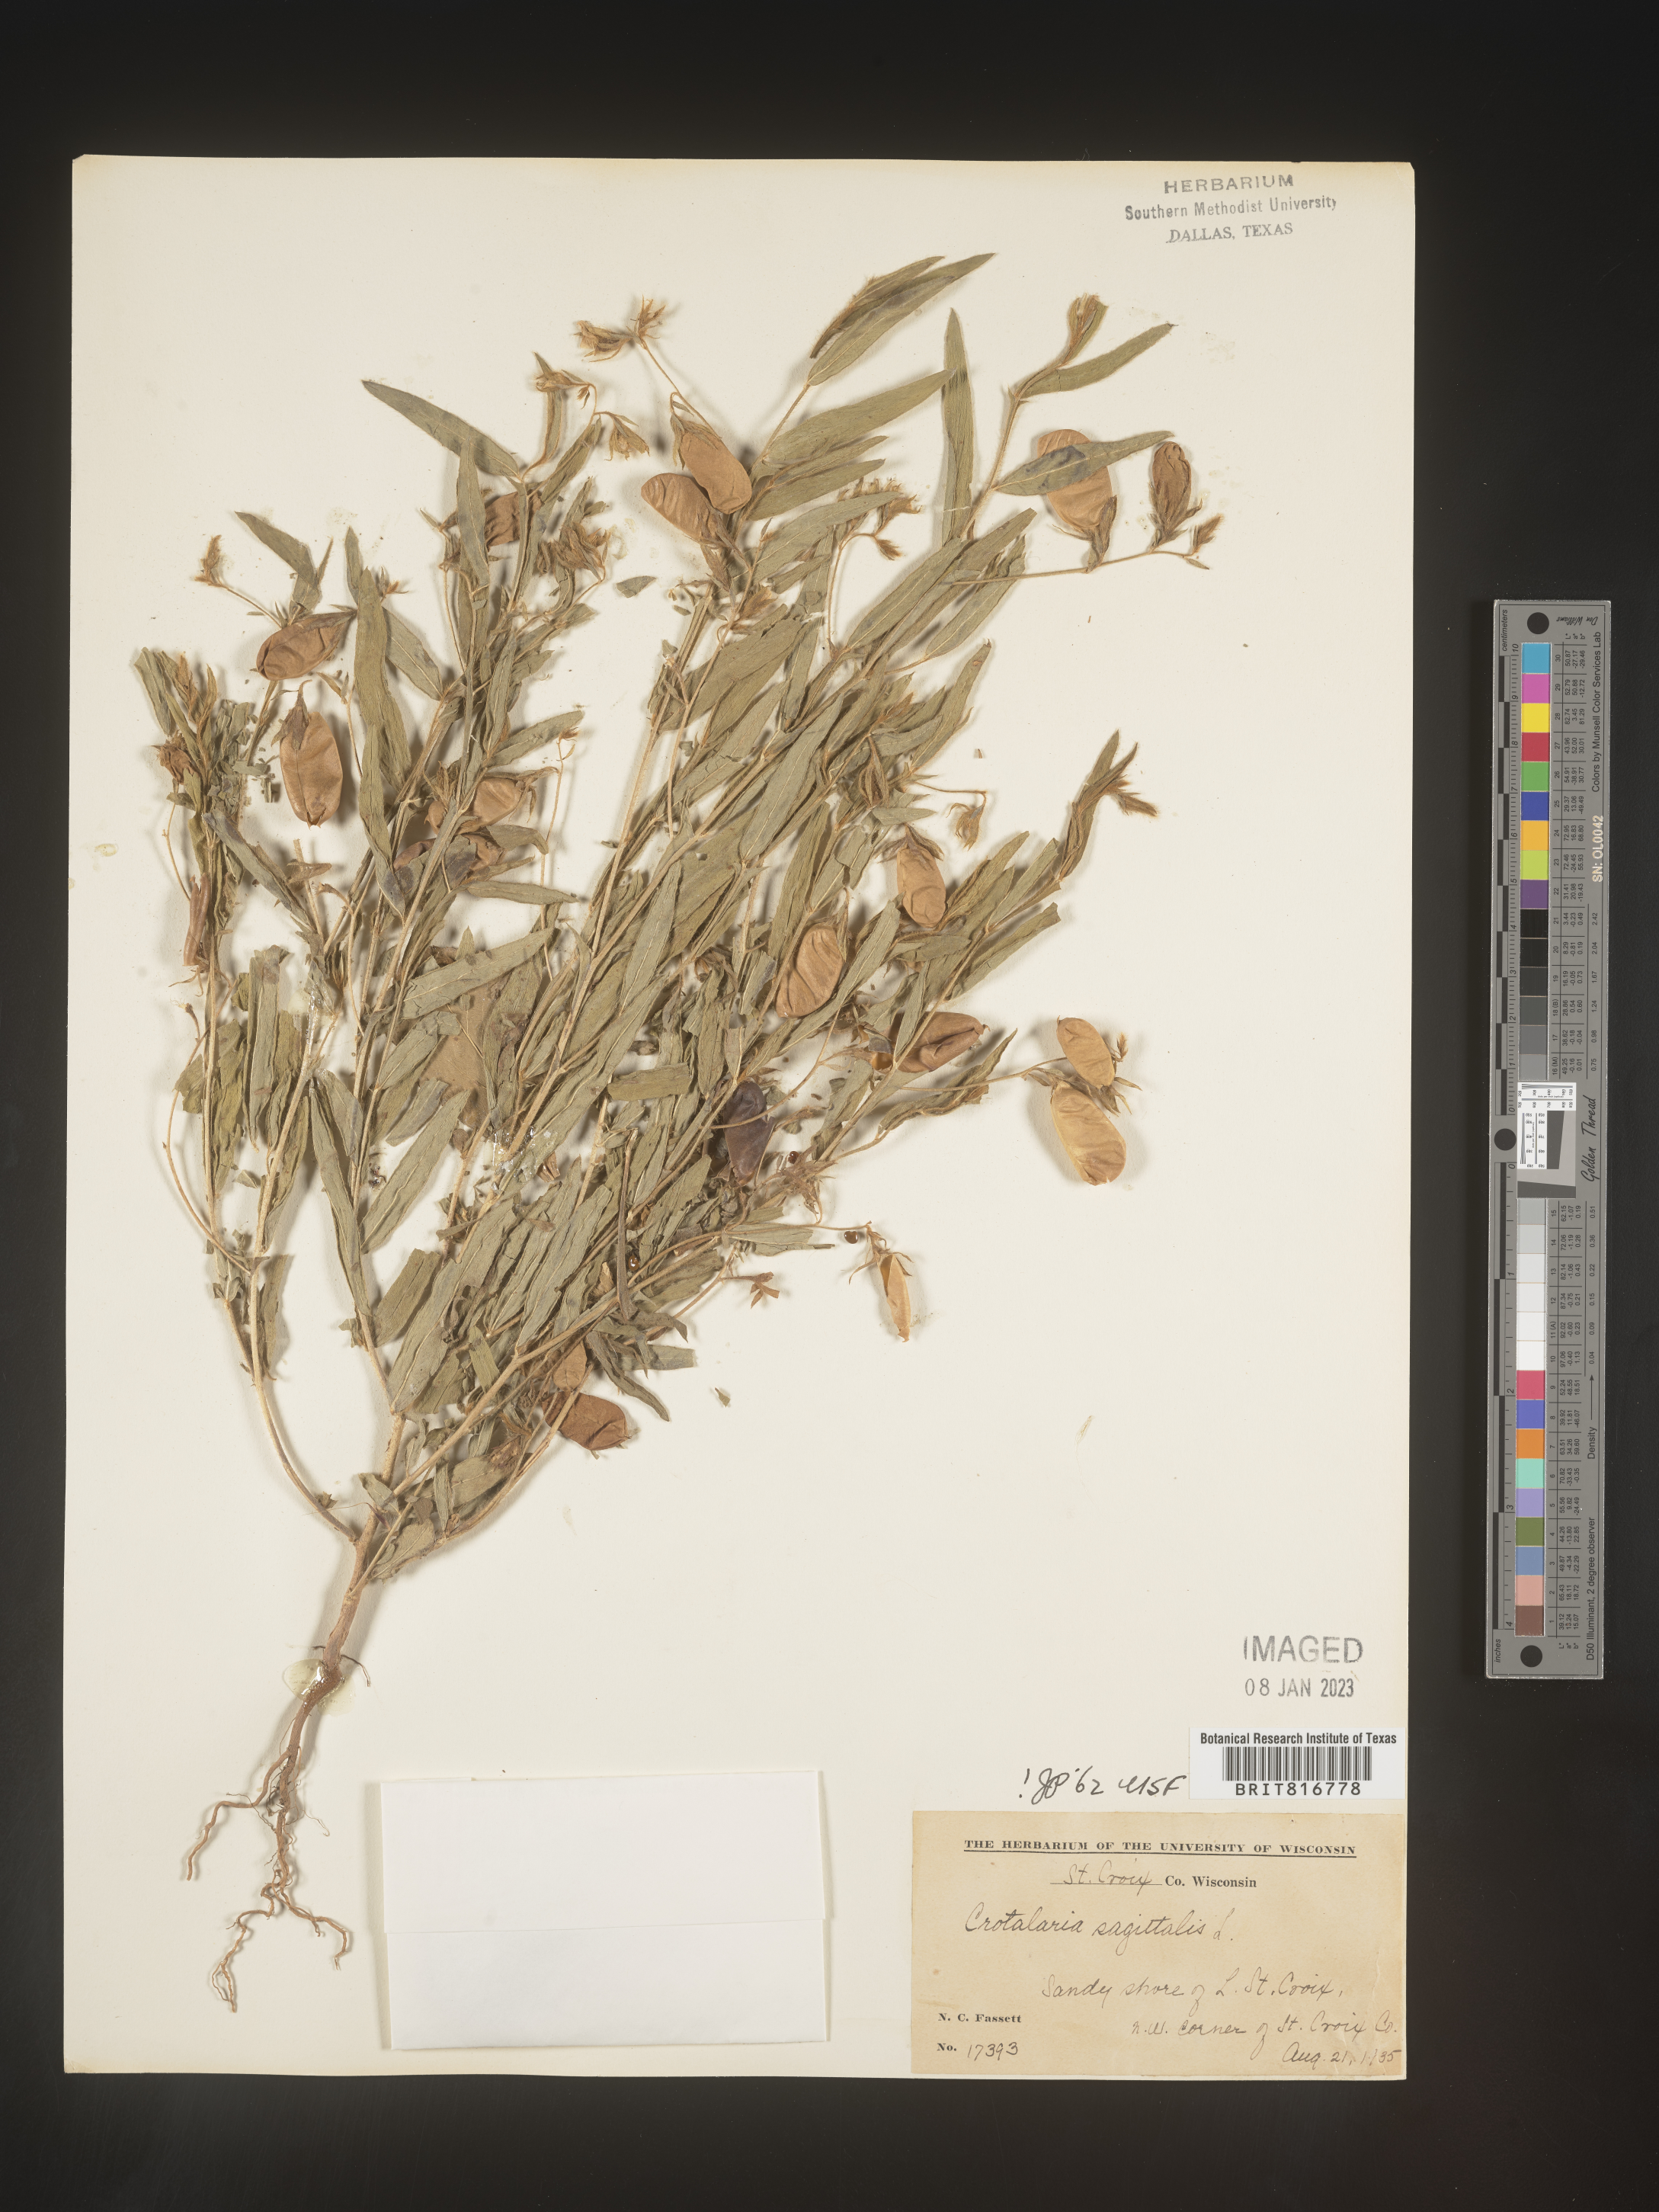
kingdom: Plantae
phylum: Tracheophyta
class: Magnoliopsida
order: Fabales
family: Fabaceae
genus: Crotalaria
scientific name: Crotalaria sagittalis
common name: Arrowhead rattlebox
